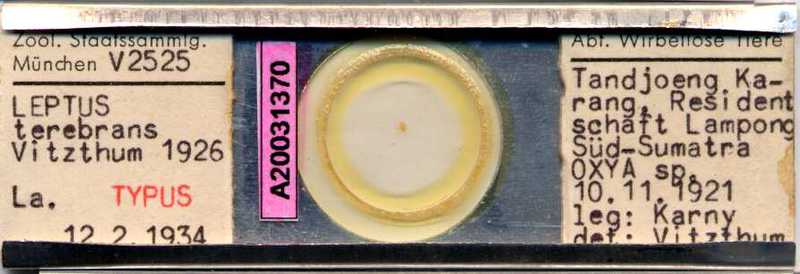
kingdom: Animalia
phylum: Arthropoda
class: Diplopoda
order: Julida
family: Parajulidae
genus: Spathiulus
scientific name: Spathiulus
